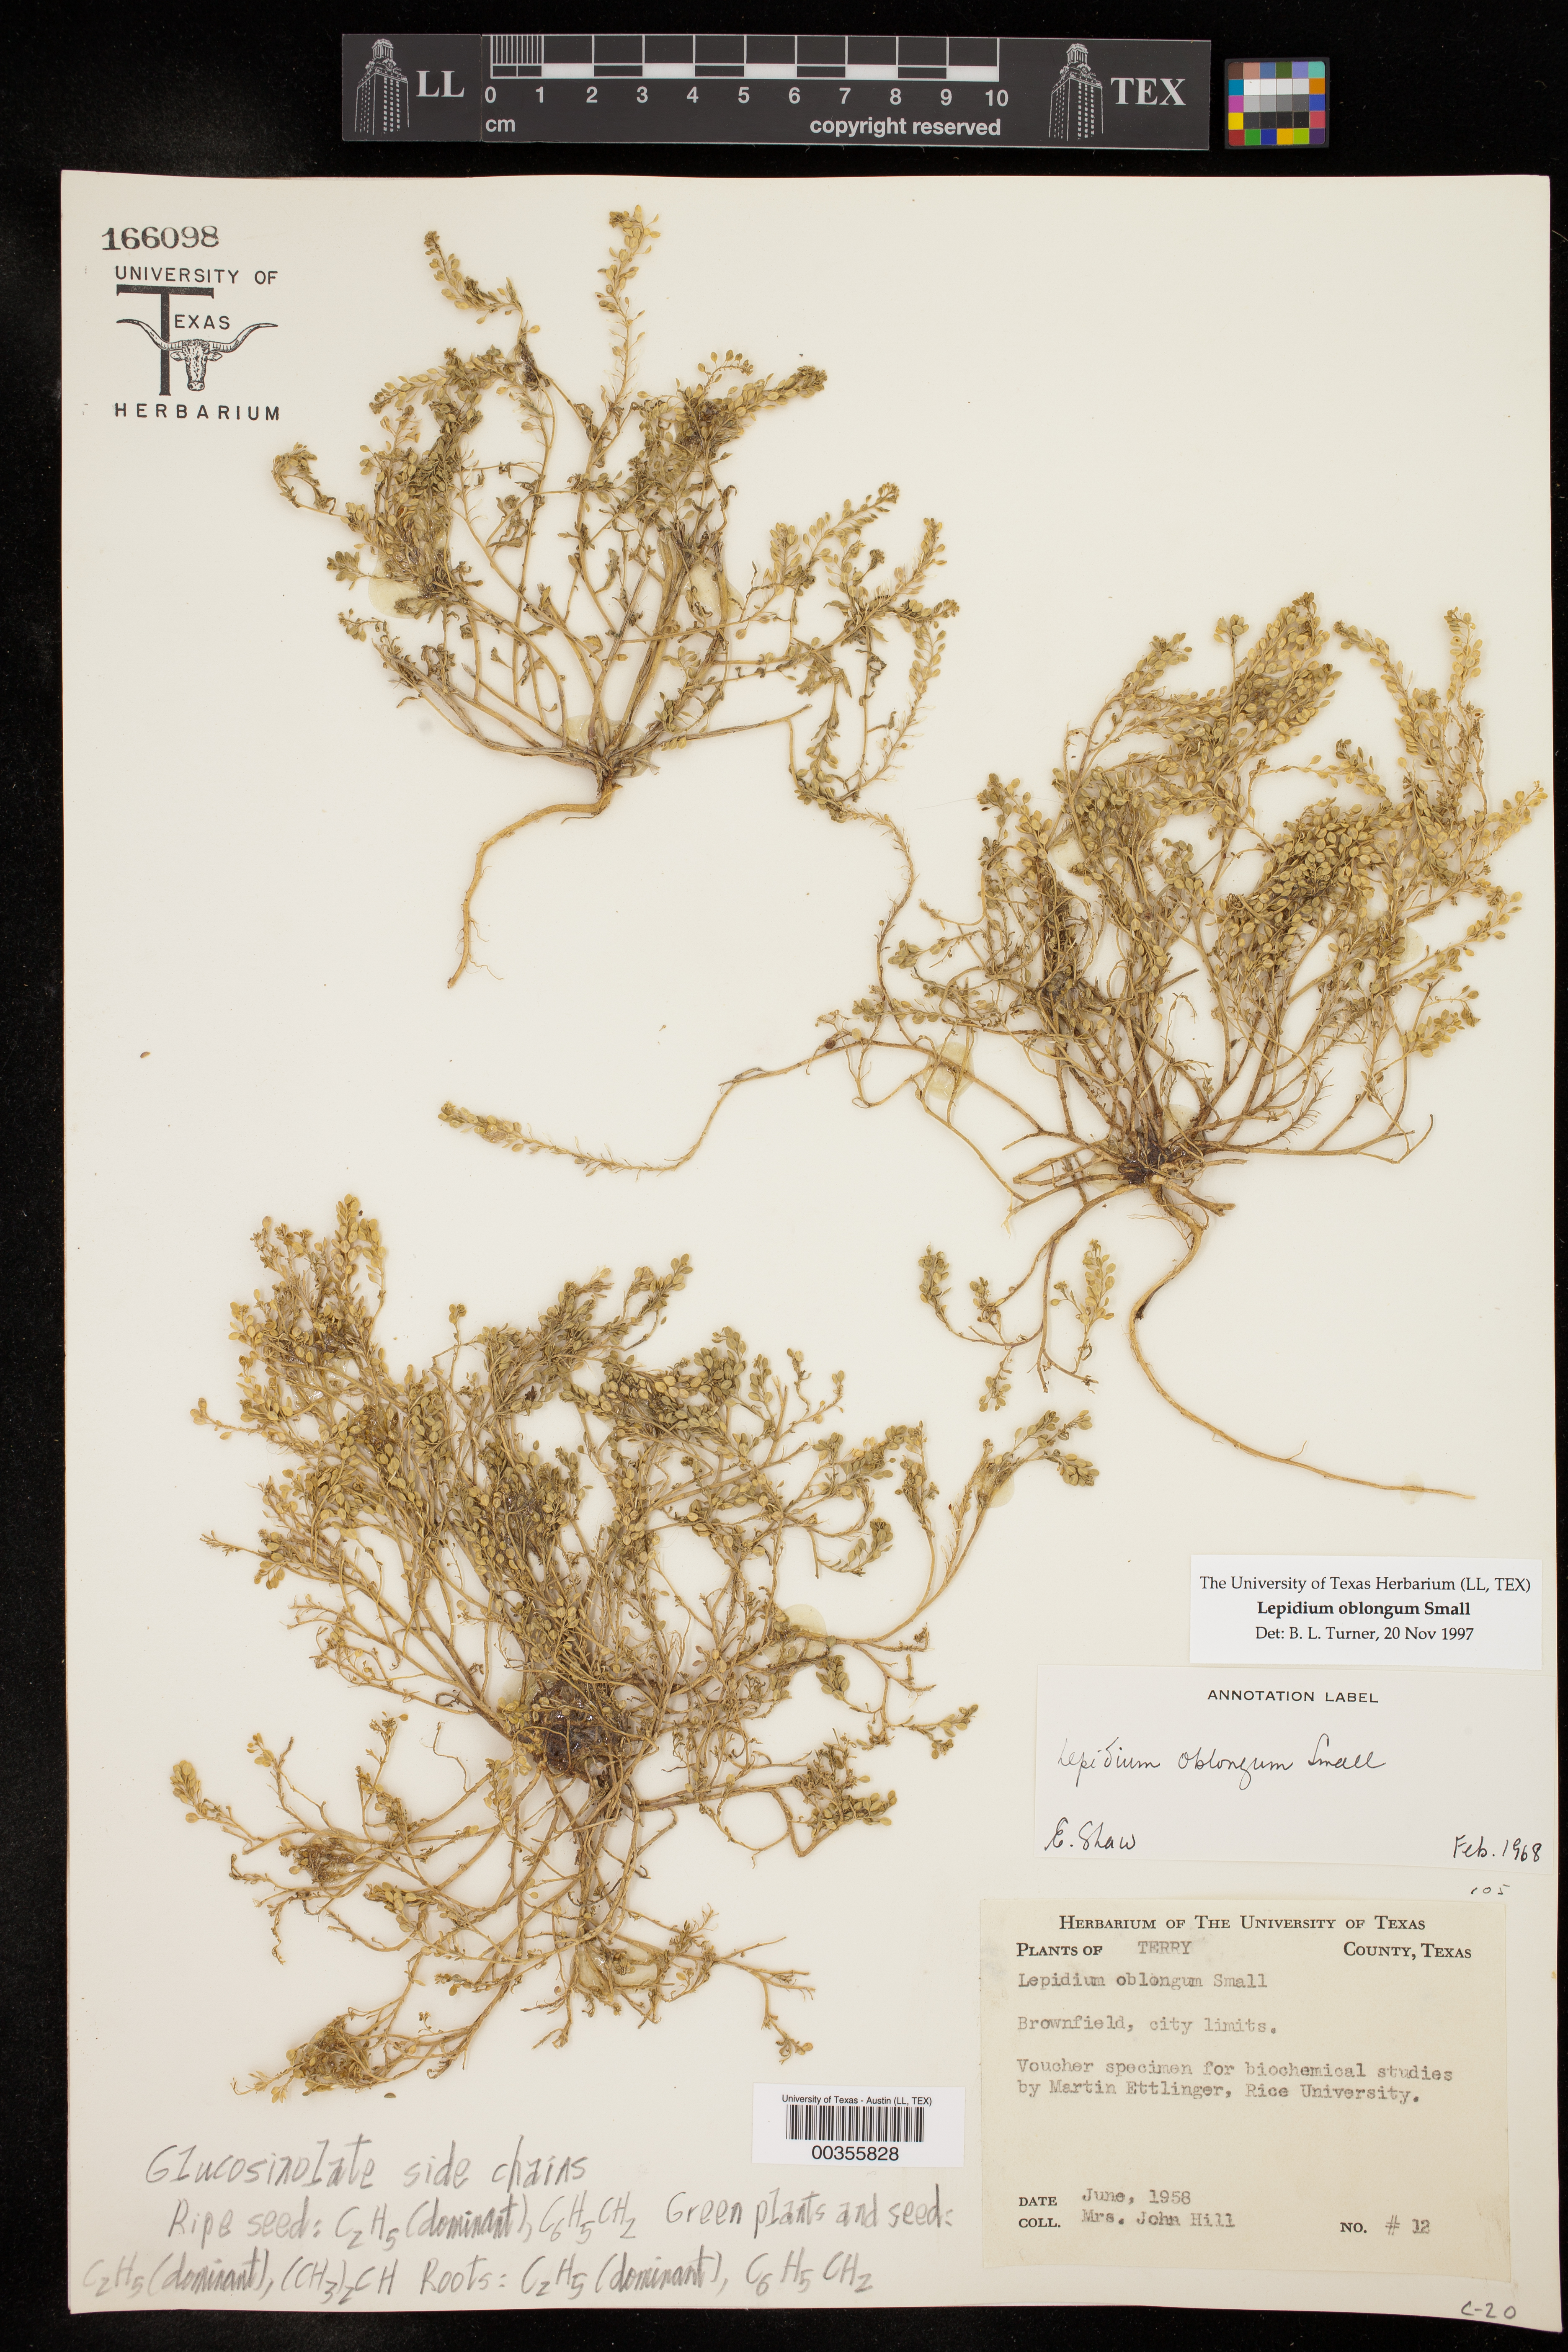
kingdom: Plantae
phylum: Tracheophyta
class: Magnoliopsida
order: Brassicales
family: Brassicaceae
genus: Lepidium
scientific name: Lepidium oblongum
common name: Veiny pepperweed
